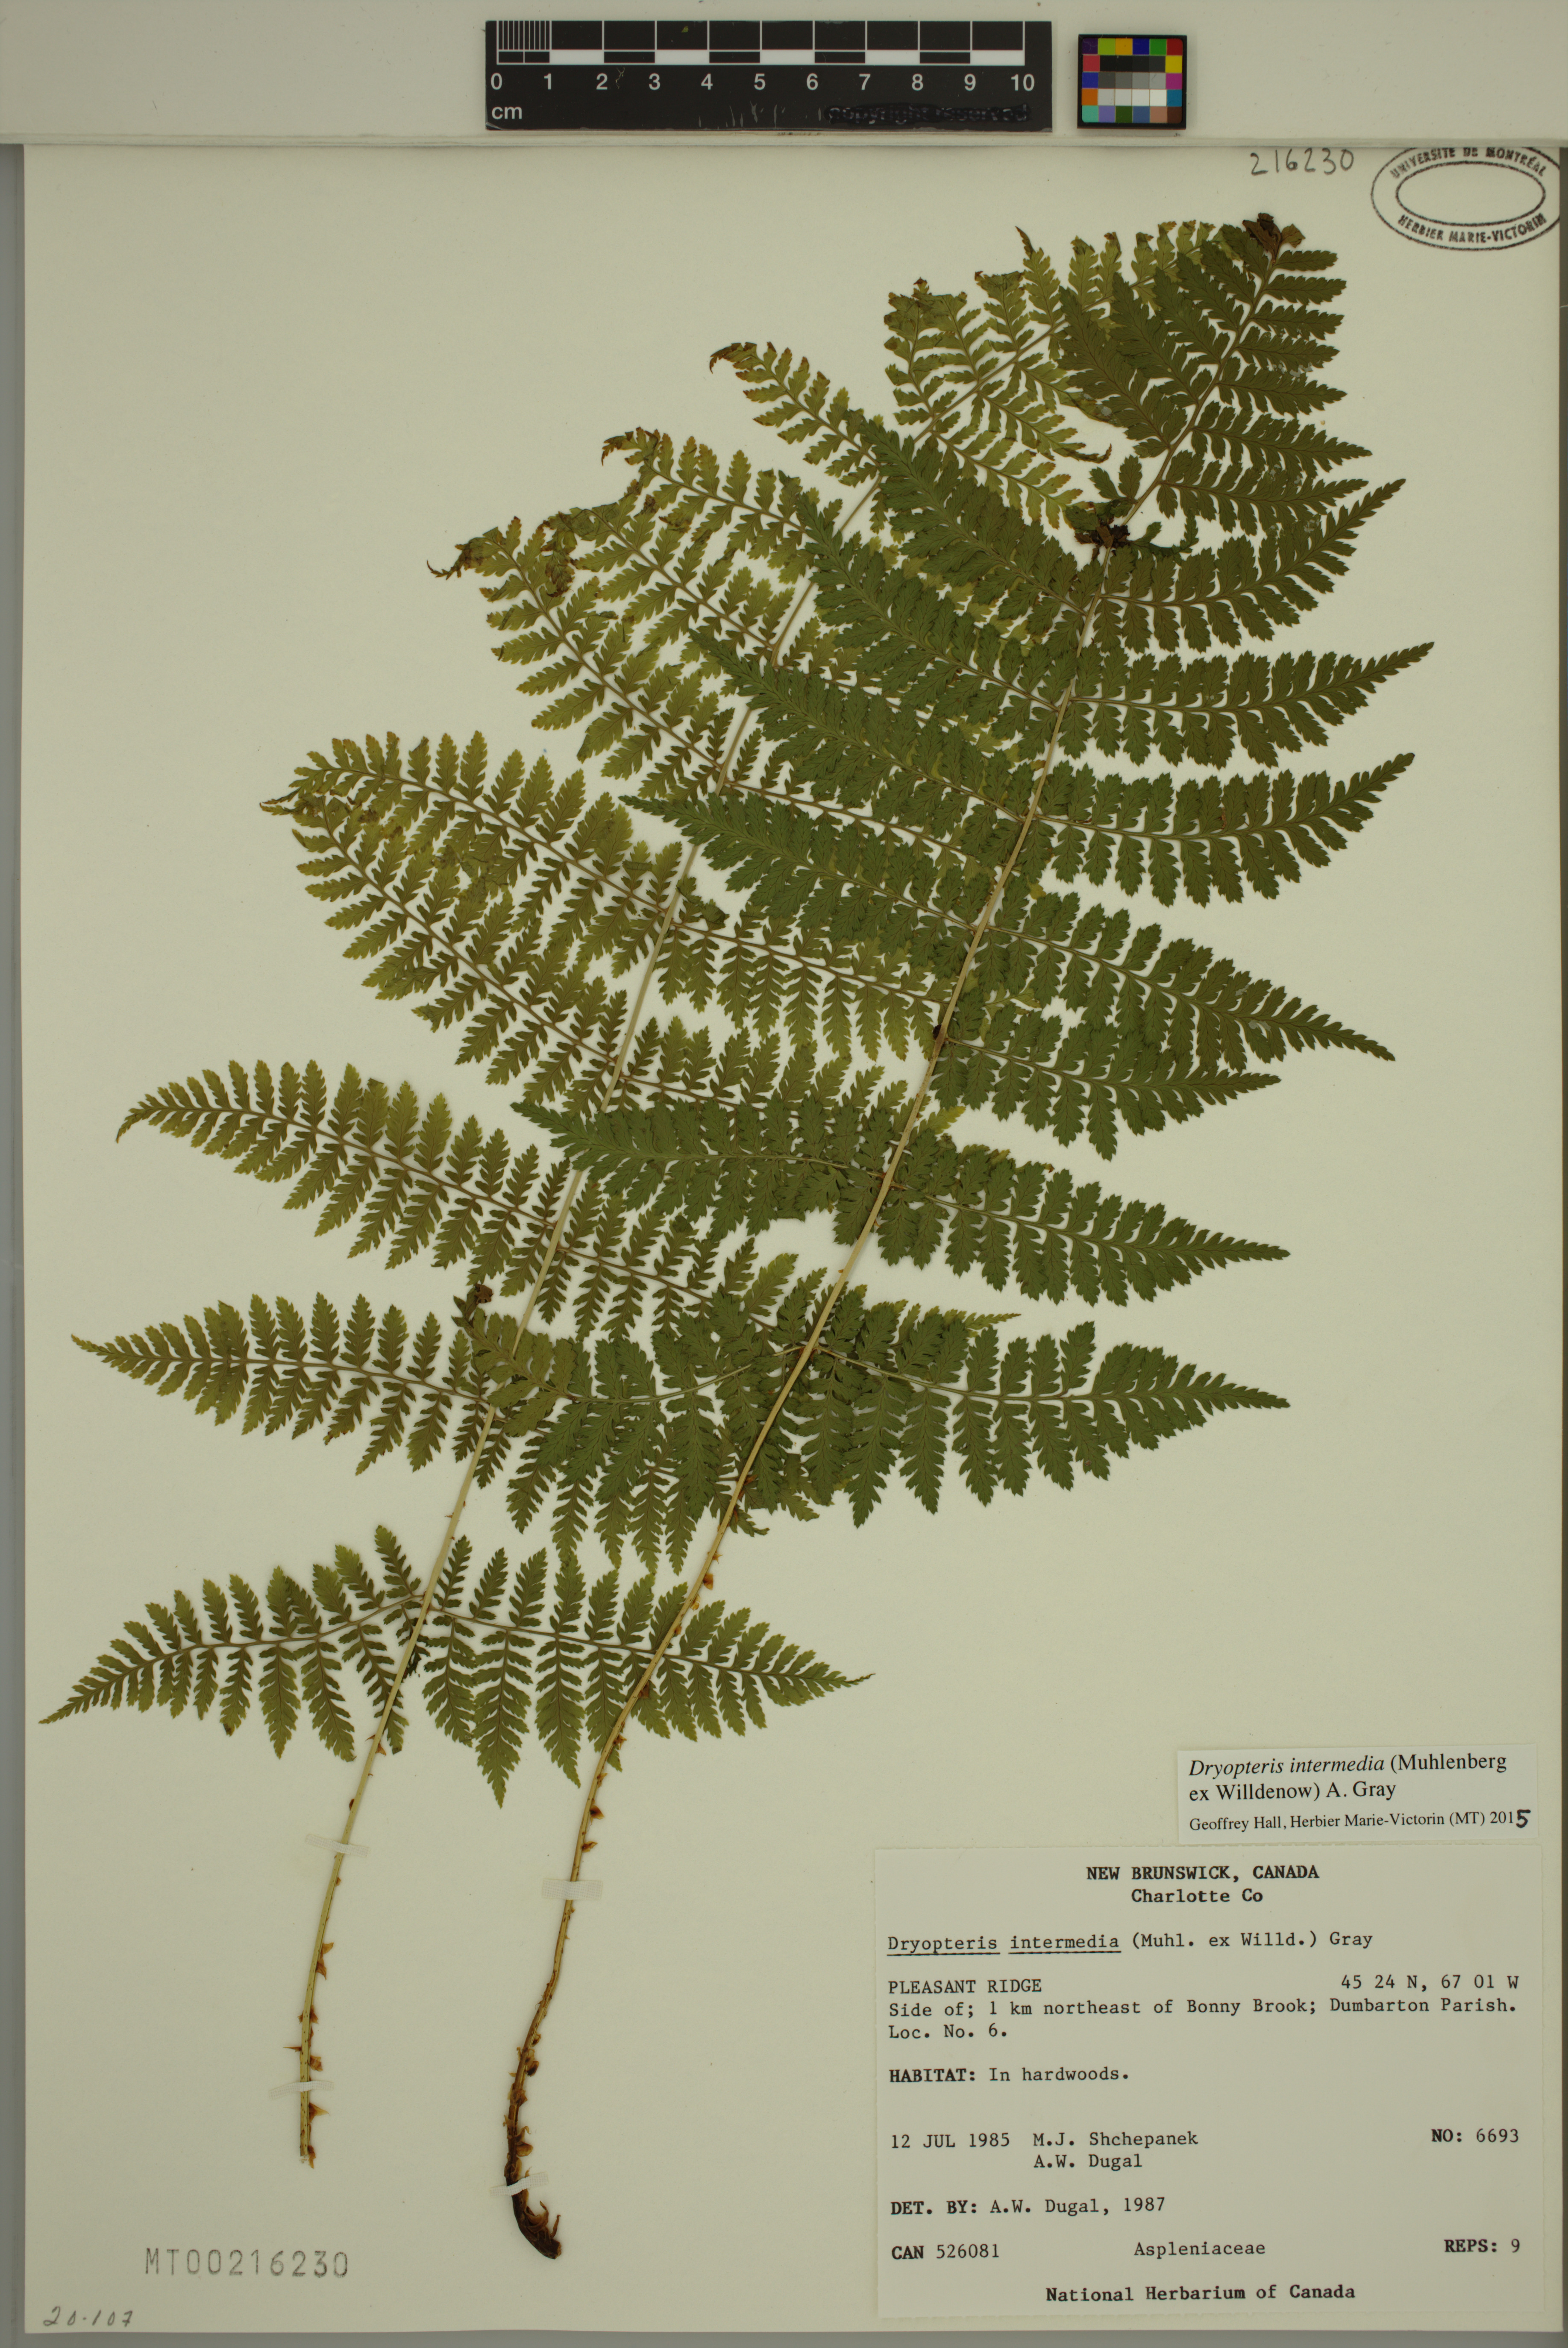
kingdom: Plantae
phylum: Tracheophyta
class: Polypodiopsida
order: Polypodiales
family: Dryopteridaceae
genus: Dryopteris
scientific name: Dryopteris intermedia
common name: Evergreen wood fern
